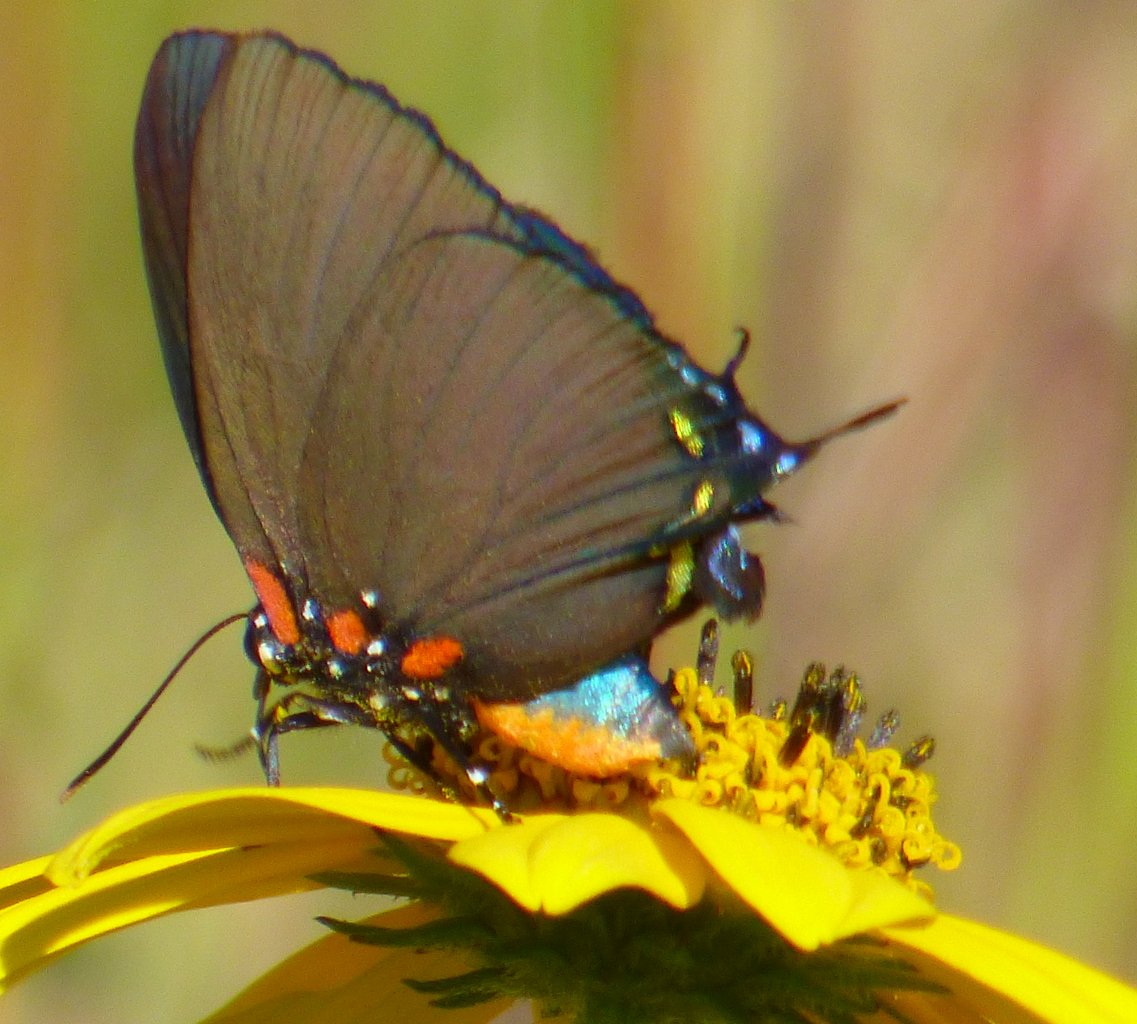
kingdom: Animalia
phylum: Arthropoda
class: Insecta
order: Lepidoptera
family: Lycaenidae
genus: Atlides
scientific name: Atlides halesus
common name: Great Purple Hairstreak
